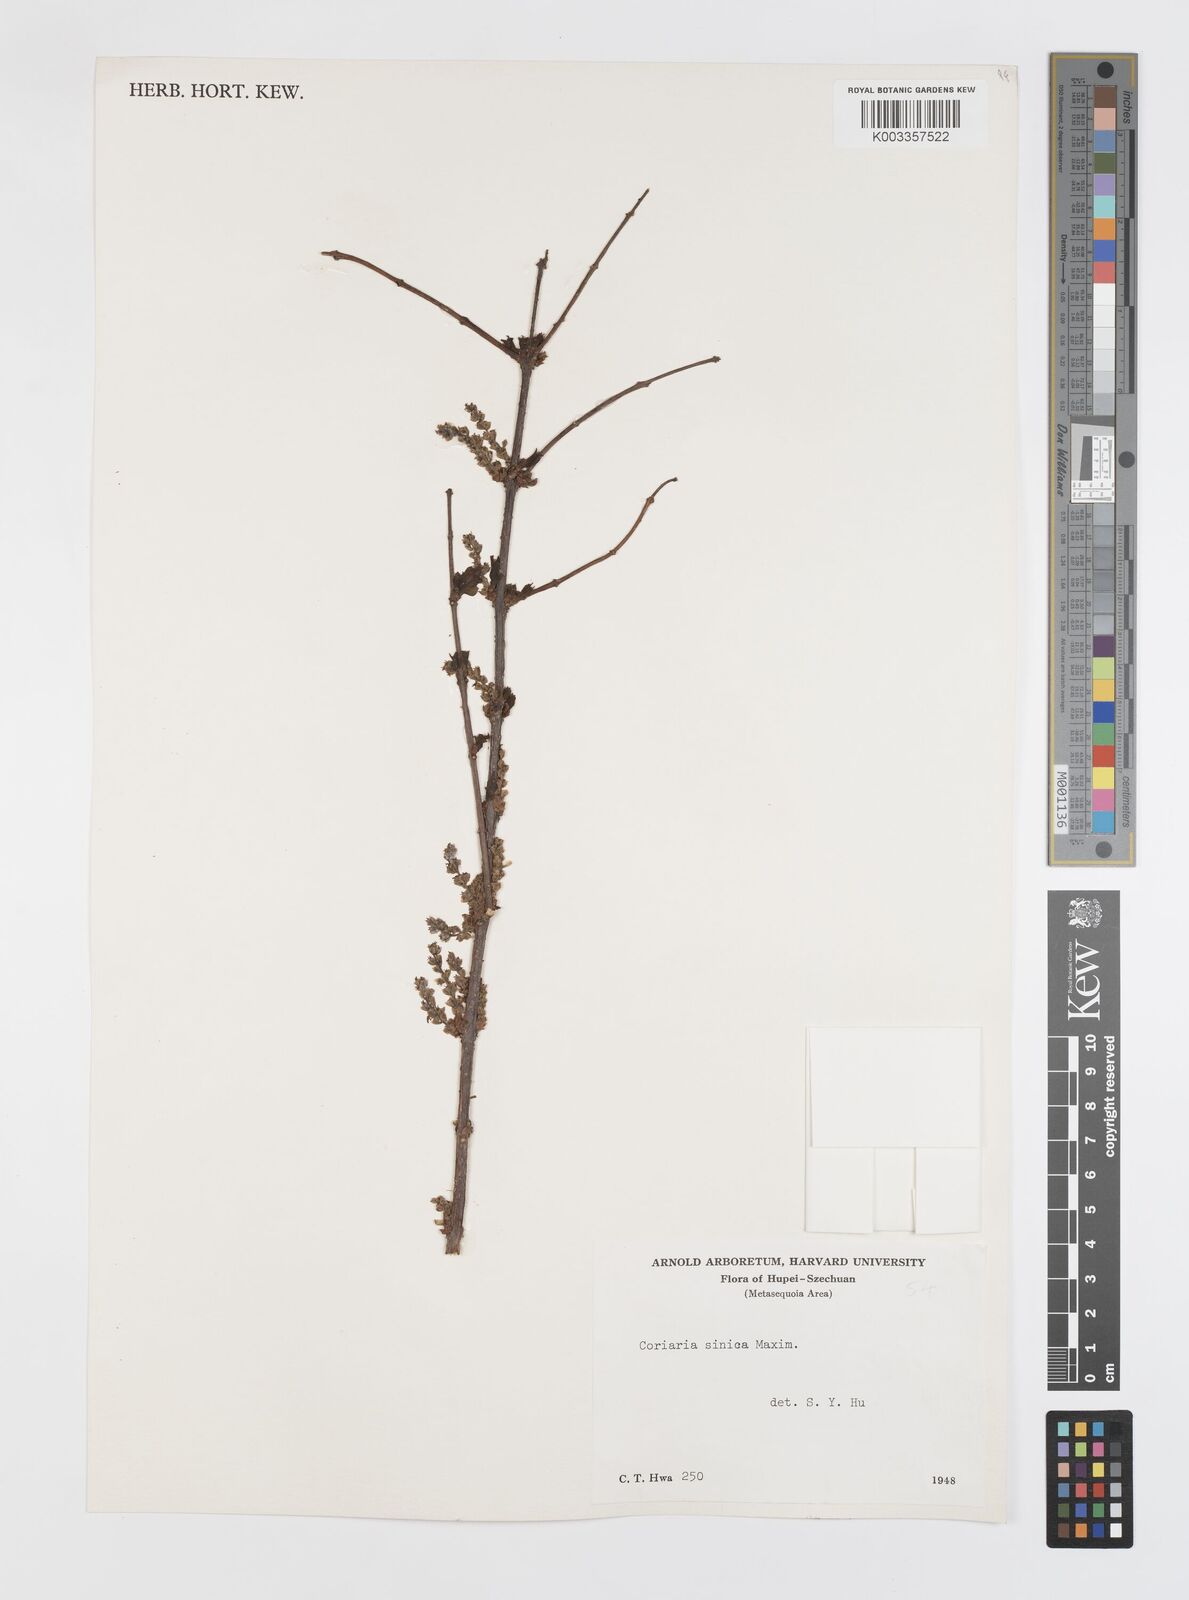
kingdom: Plantae
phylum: Tracheophyta
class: Magnoliopsida
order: Cucurbitales
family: Coriariaceae
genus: Coriaria
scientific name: Coriaria napalensis
